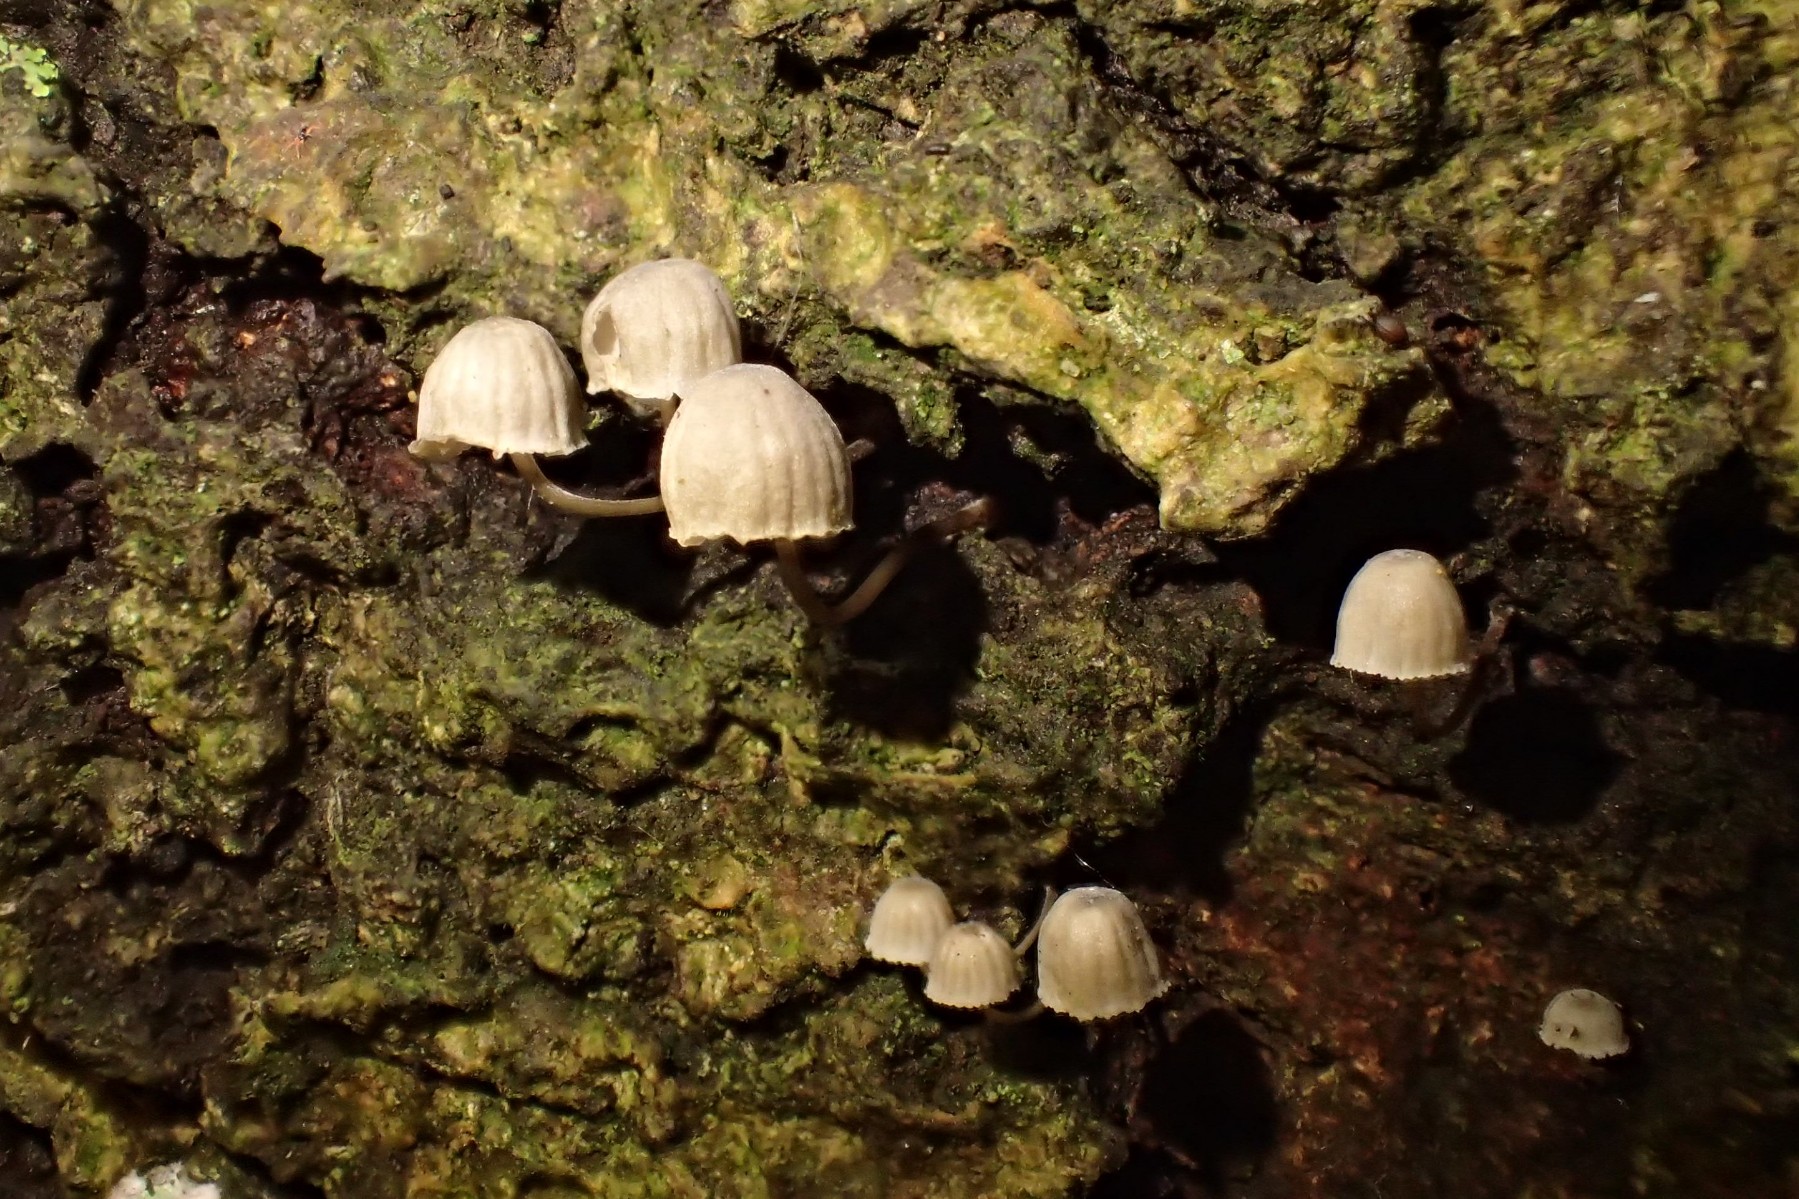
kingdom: Fungi
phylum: Basidiomycota
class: Agaricomycetes
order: Agaricales
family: Mycenaceae
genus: Mycena
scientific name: Mycena pseudocorticola
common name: gråblå bark-huesvamp
